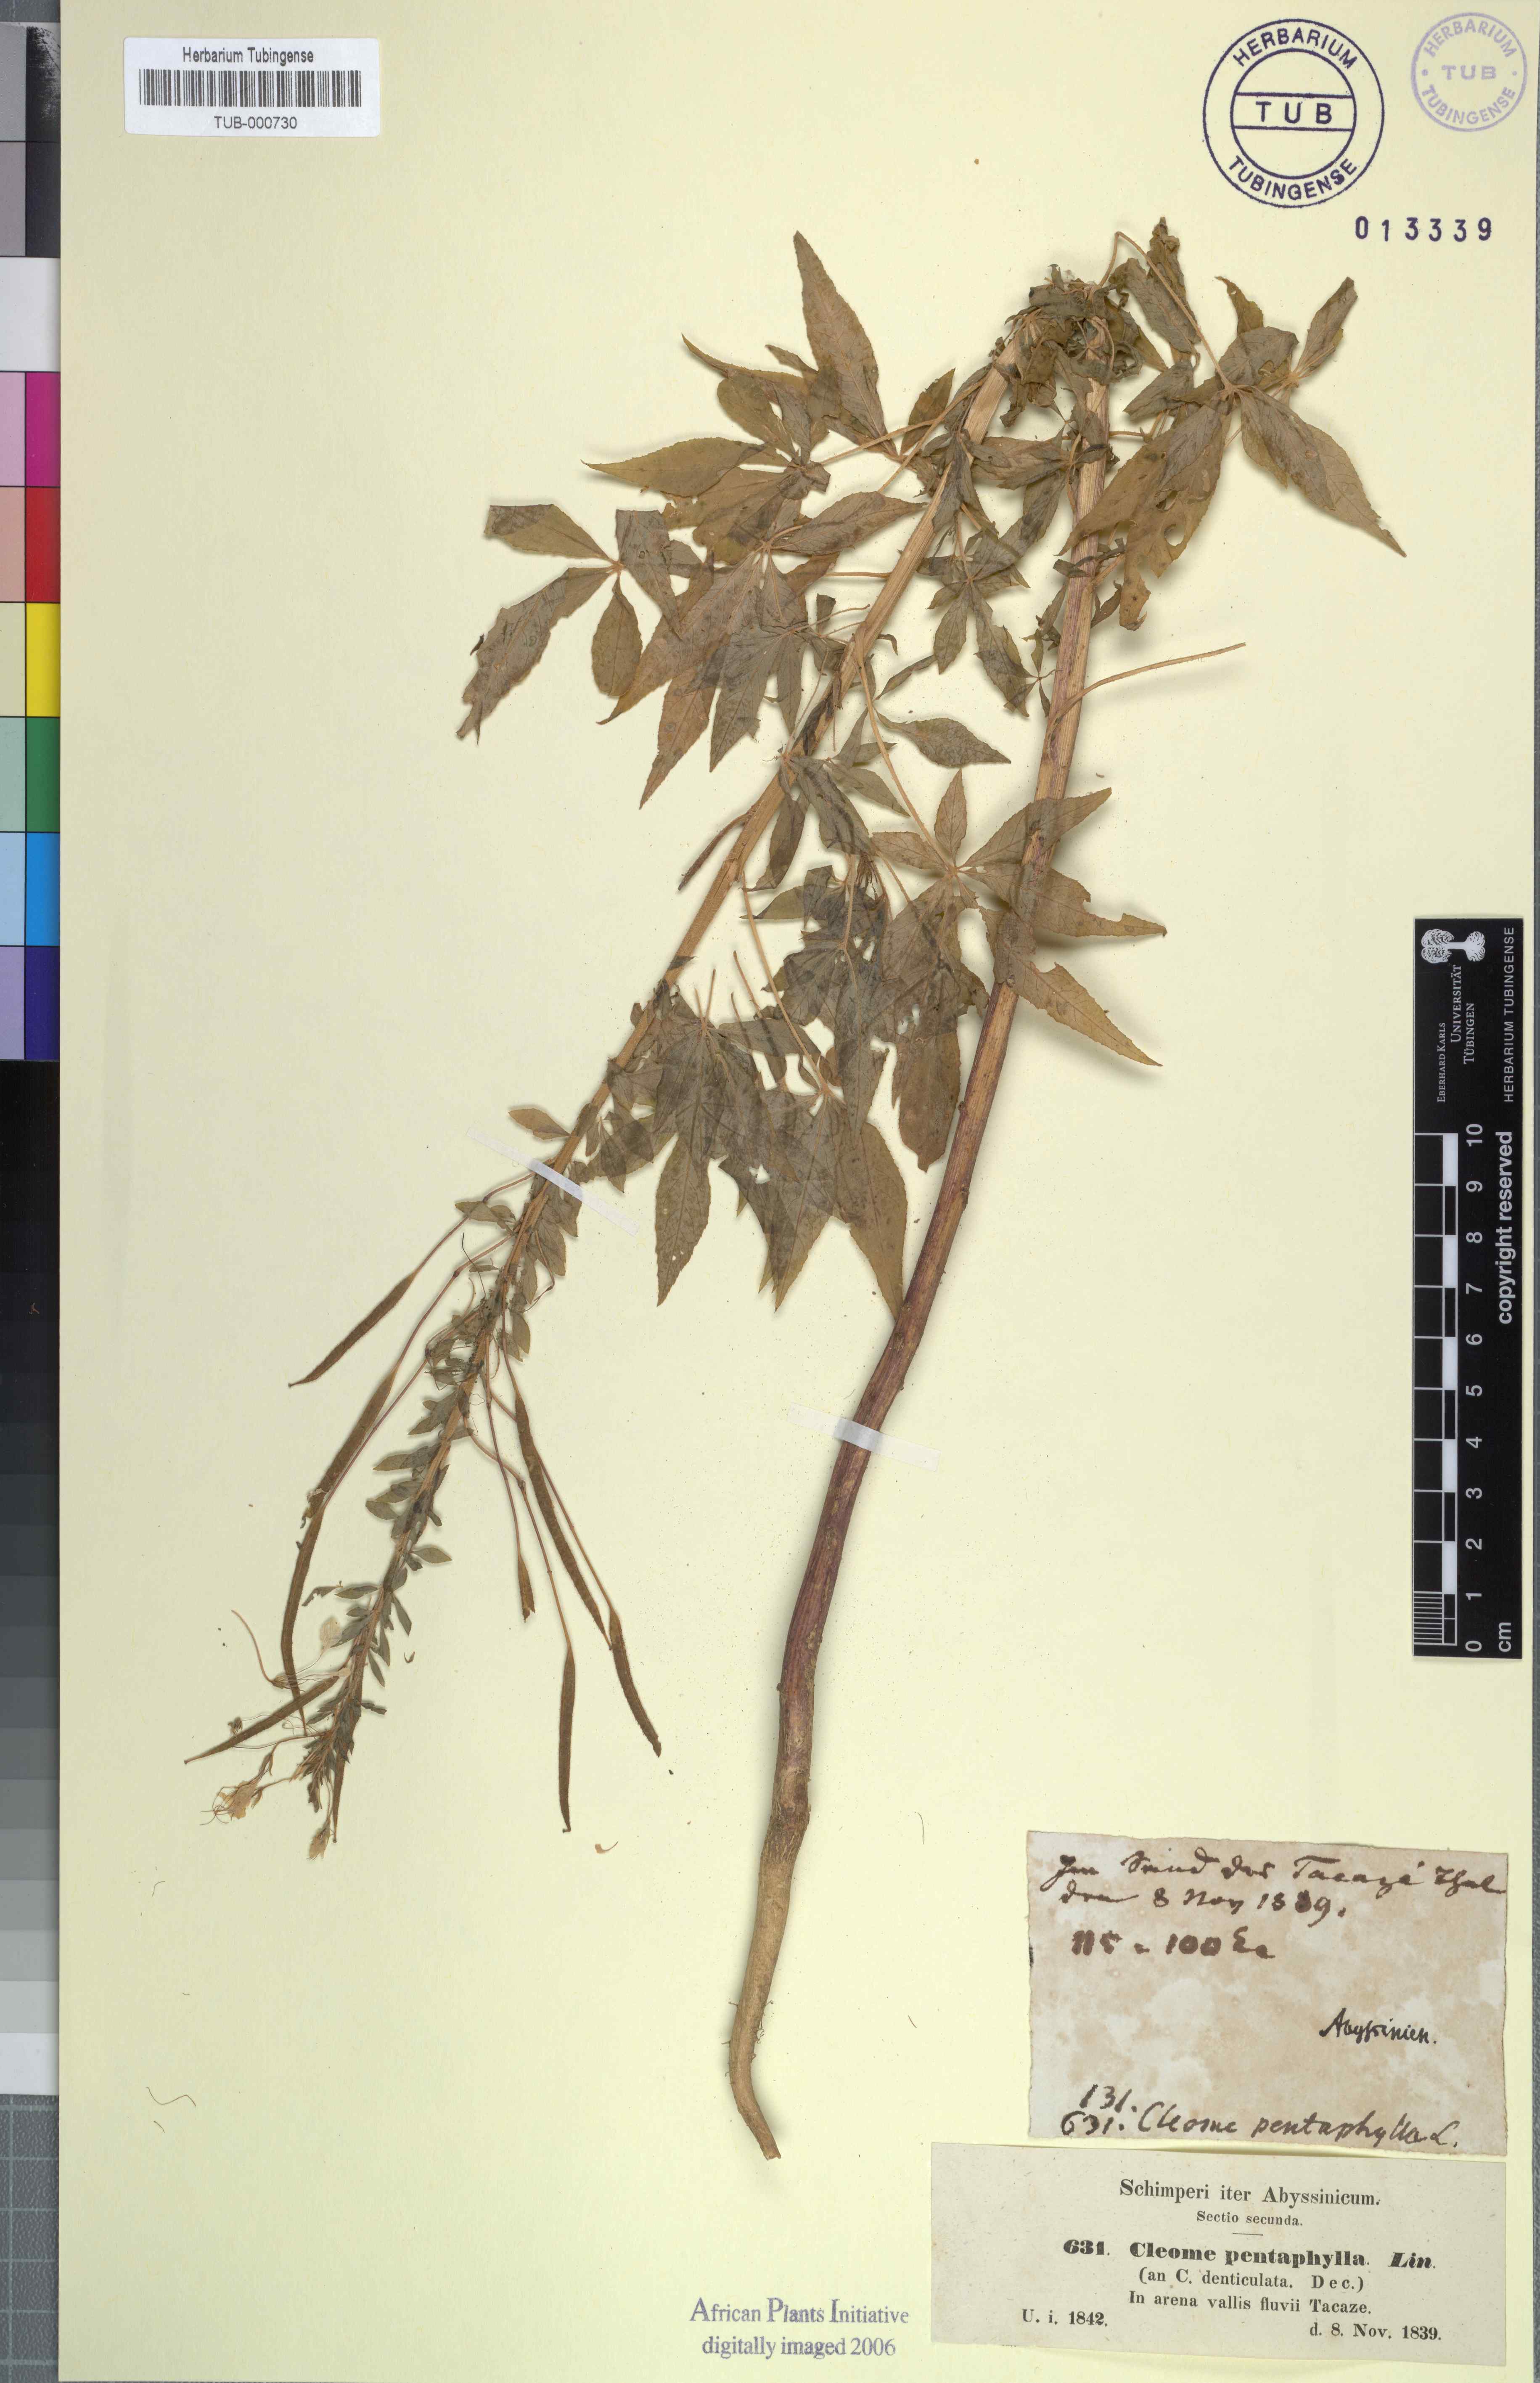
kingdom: Plantae
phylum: Tracheophyta
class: Magnoliopsida
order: Brassicales
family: Cleomaceae
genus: Gynandropsis
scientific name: Gynandropsis gynandra
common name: Spiderwisp
